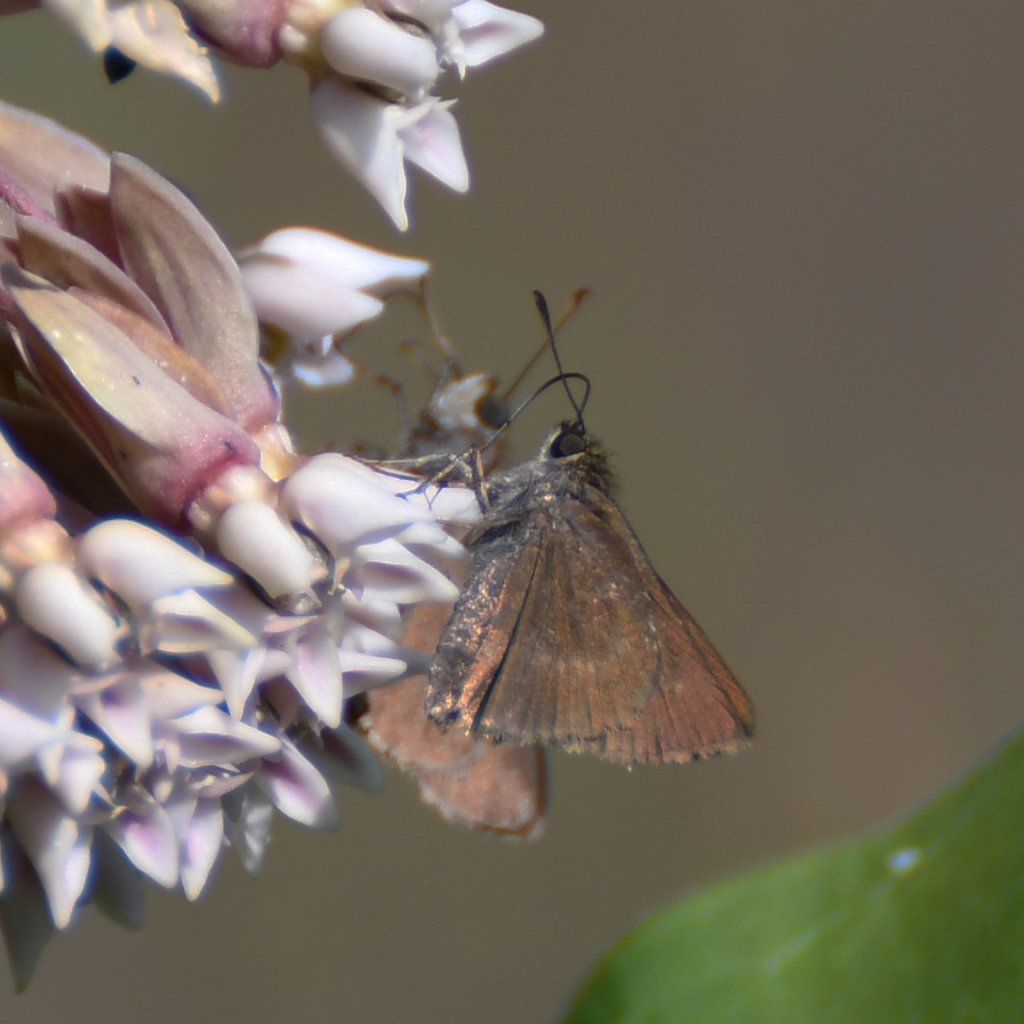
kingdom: Animalia
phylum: Arthropoda
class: Insecta
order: Lepidoptera
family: Hesperiidae
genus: Euphyes
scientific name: Euphyes vestris
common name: Dun Skipper
